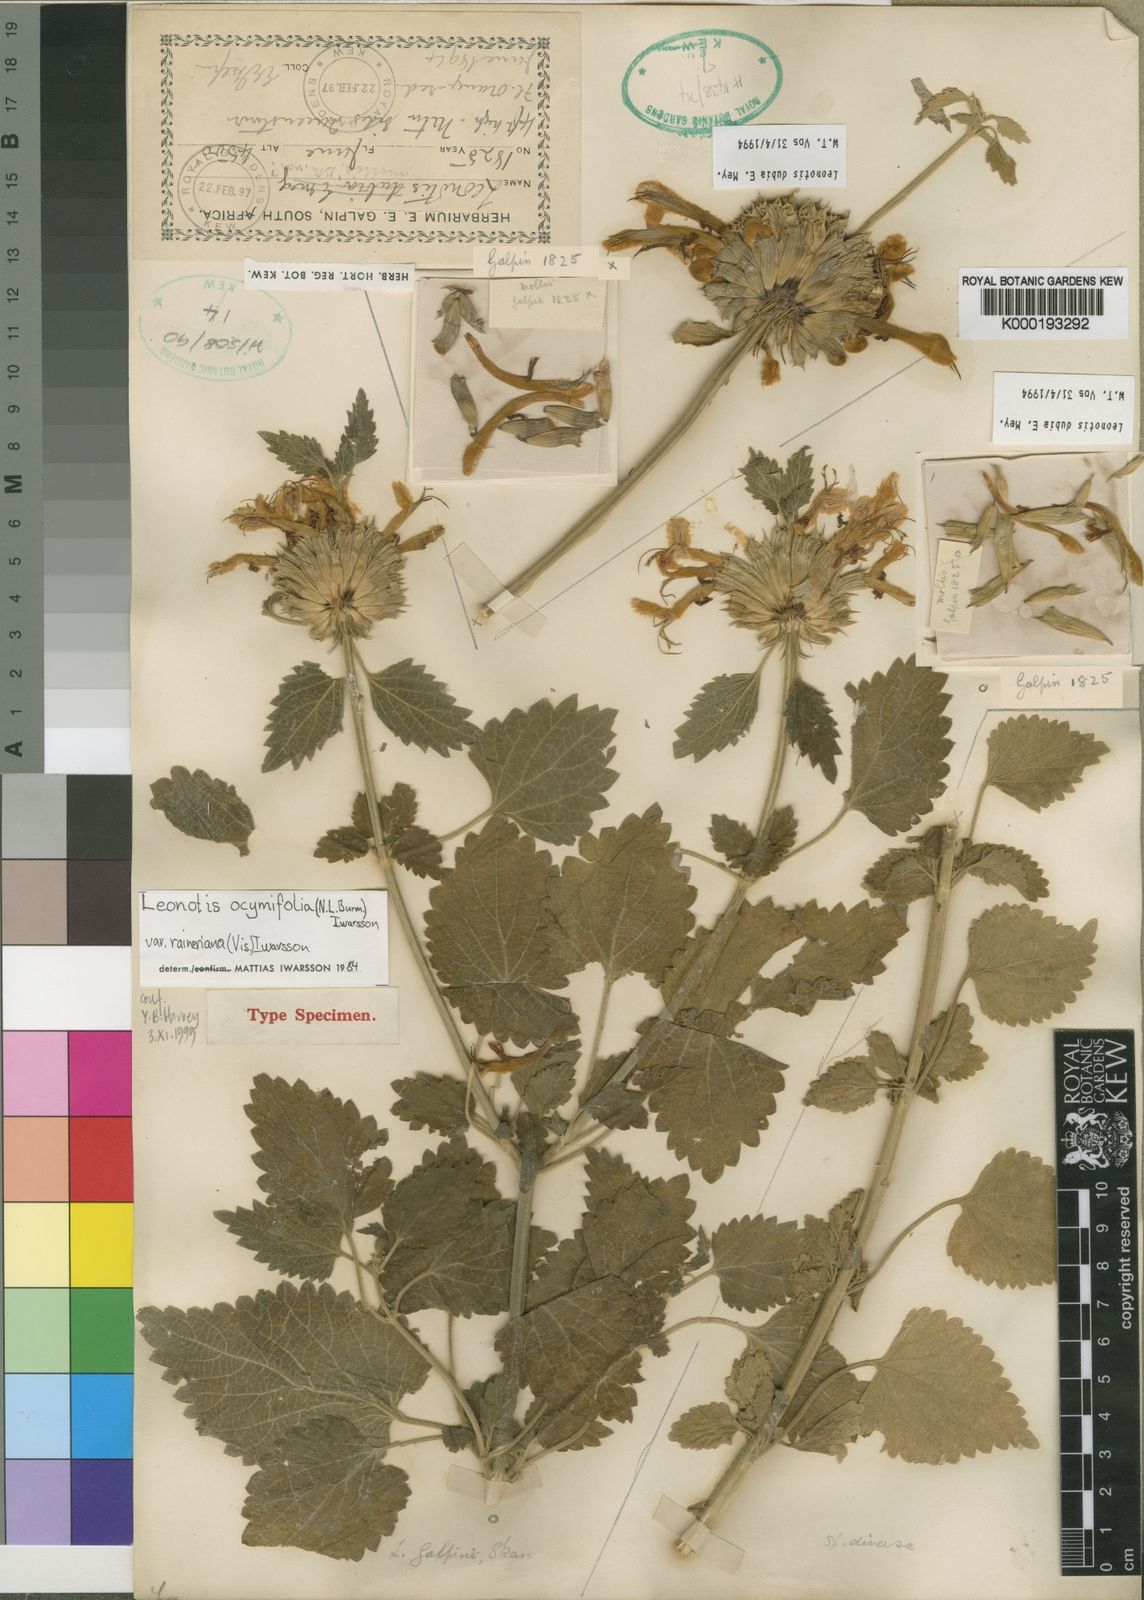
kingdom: Plantae
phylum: Tracheophyta
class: Magnoliopsida
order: Lamiales
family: Lamiaceae
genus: Leonotis
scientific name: Leonotis ocymifolia
